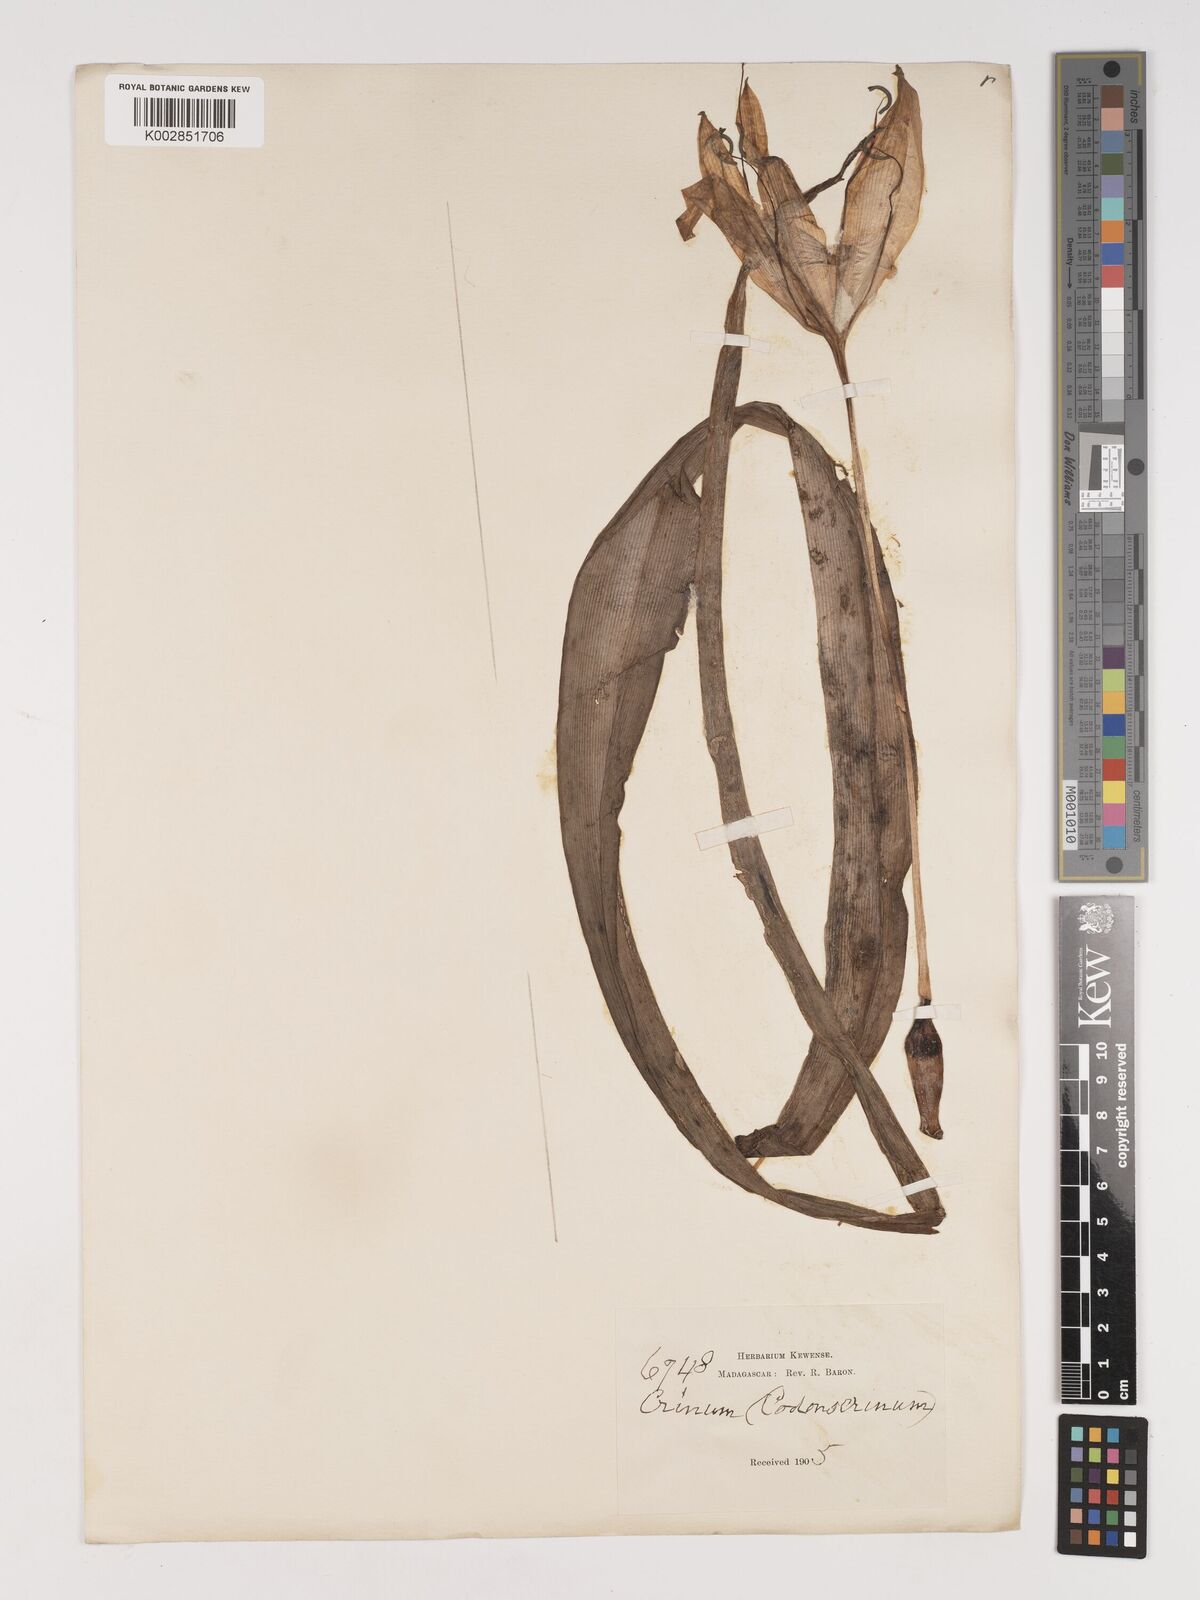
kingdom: Plantae
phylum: Tracheophyta
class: Liliopsida
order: Asparagales
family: Amaryllidaceae
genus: Crinum
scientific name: Crinum
